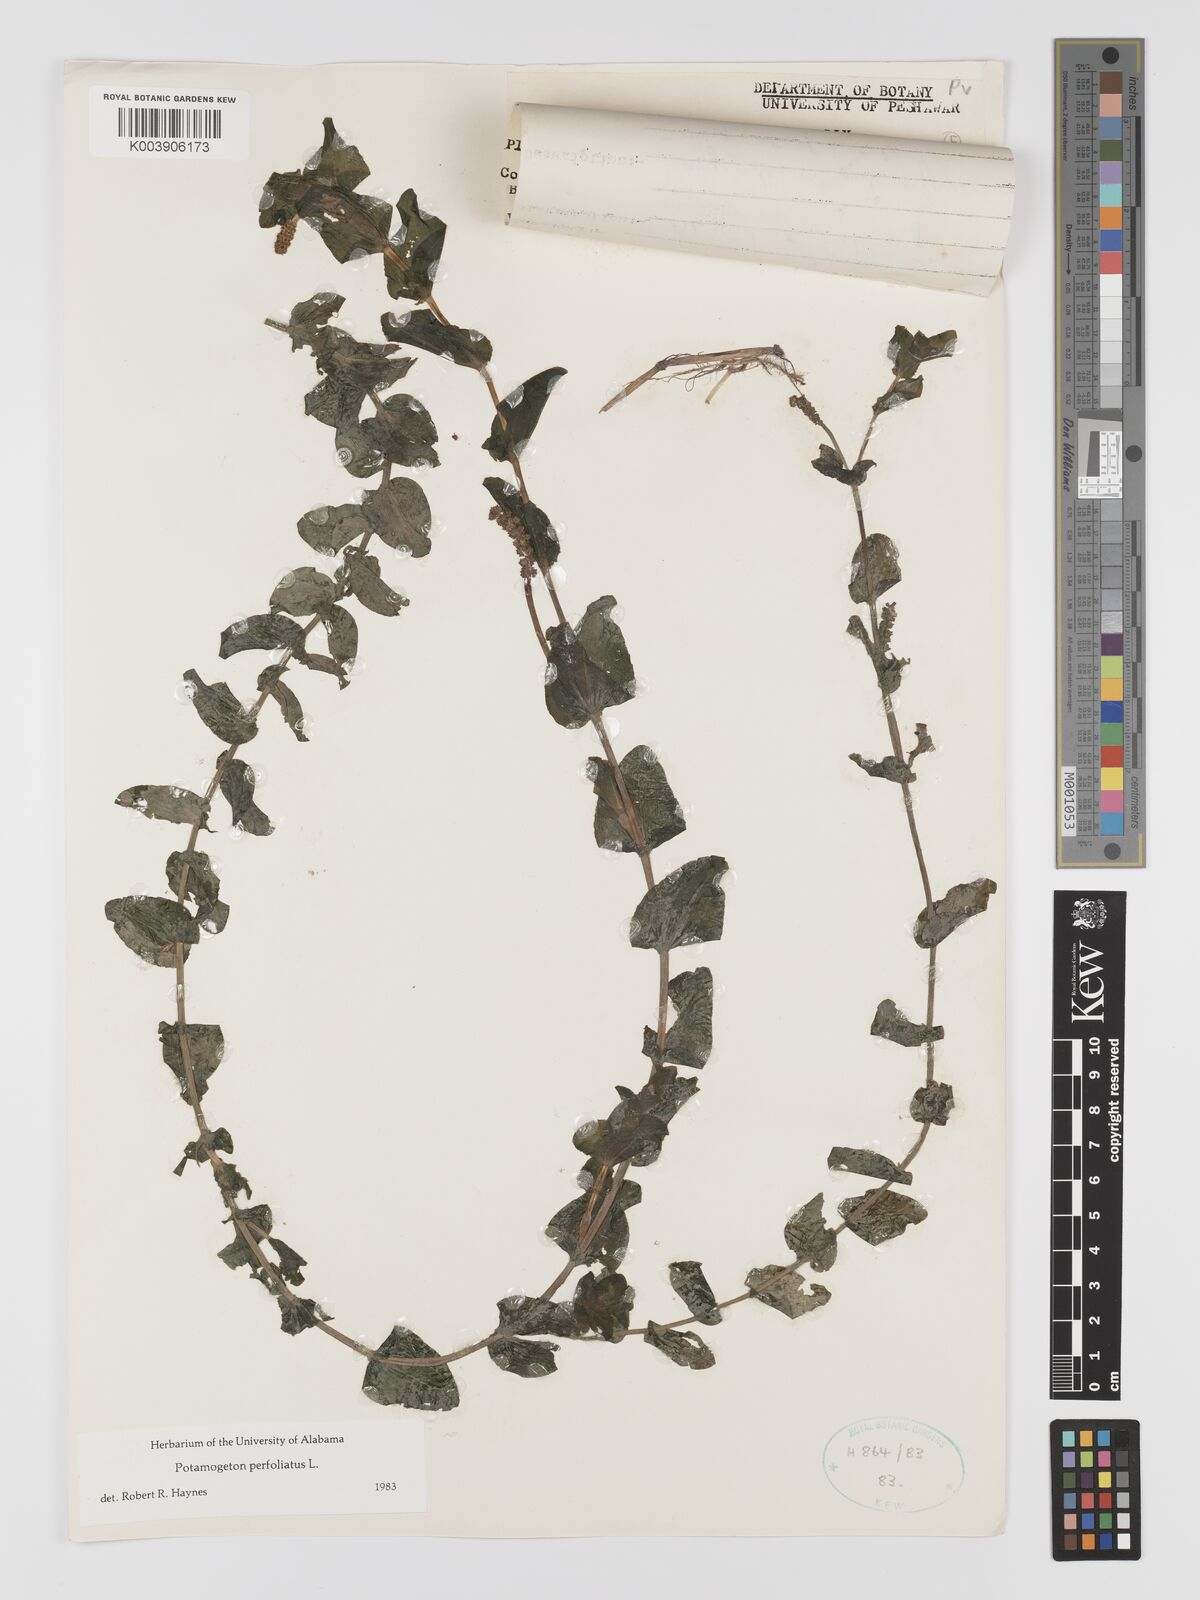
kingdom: Plantae
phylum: Tracheophyta
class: Liliopsida
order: Alismatales
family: Potamogetonaceae
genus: Potamogeton
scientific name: Potamogeton perfoliatus
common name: Perfoliate pondweed
